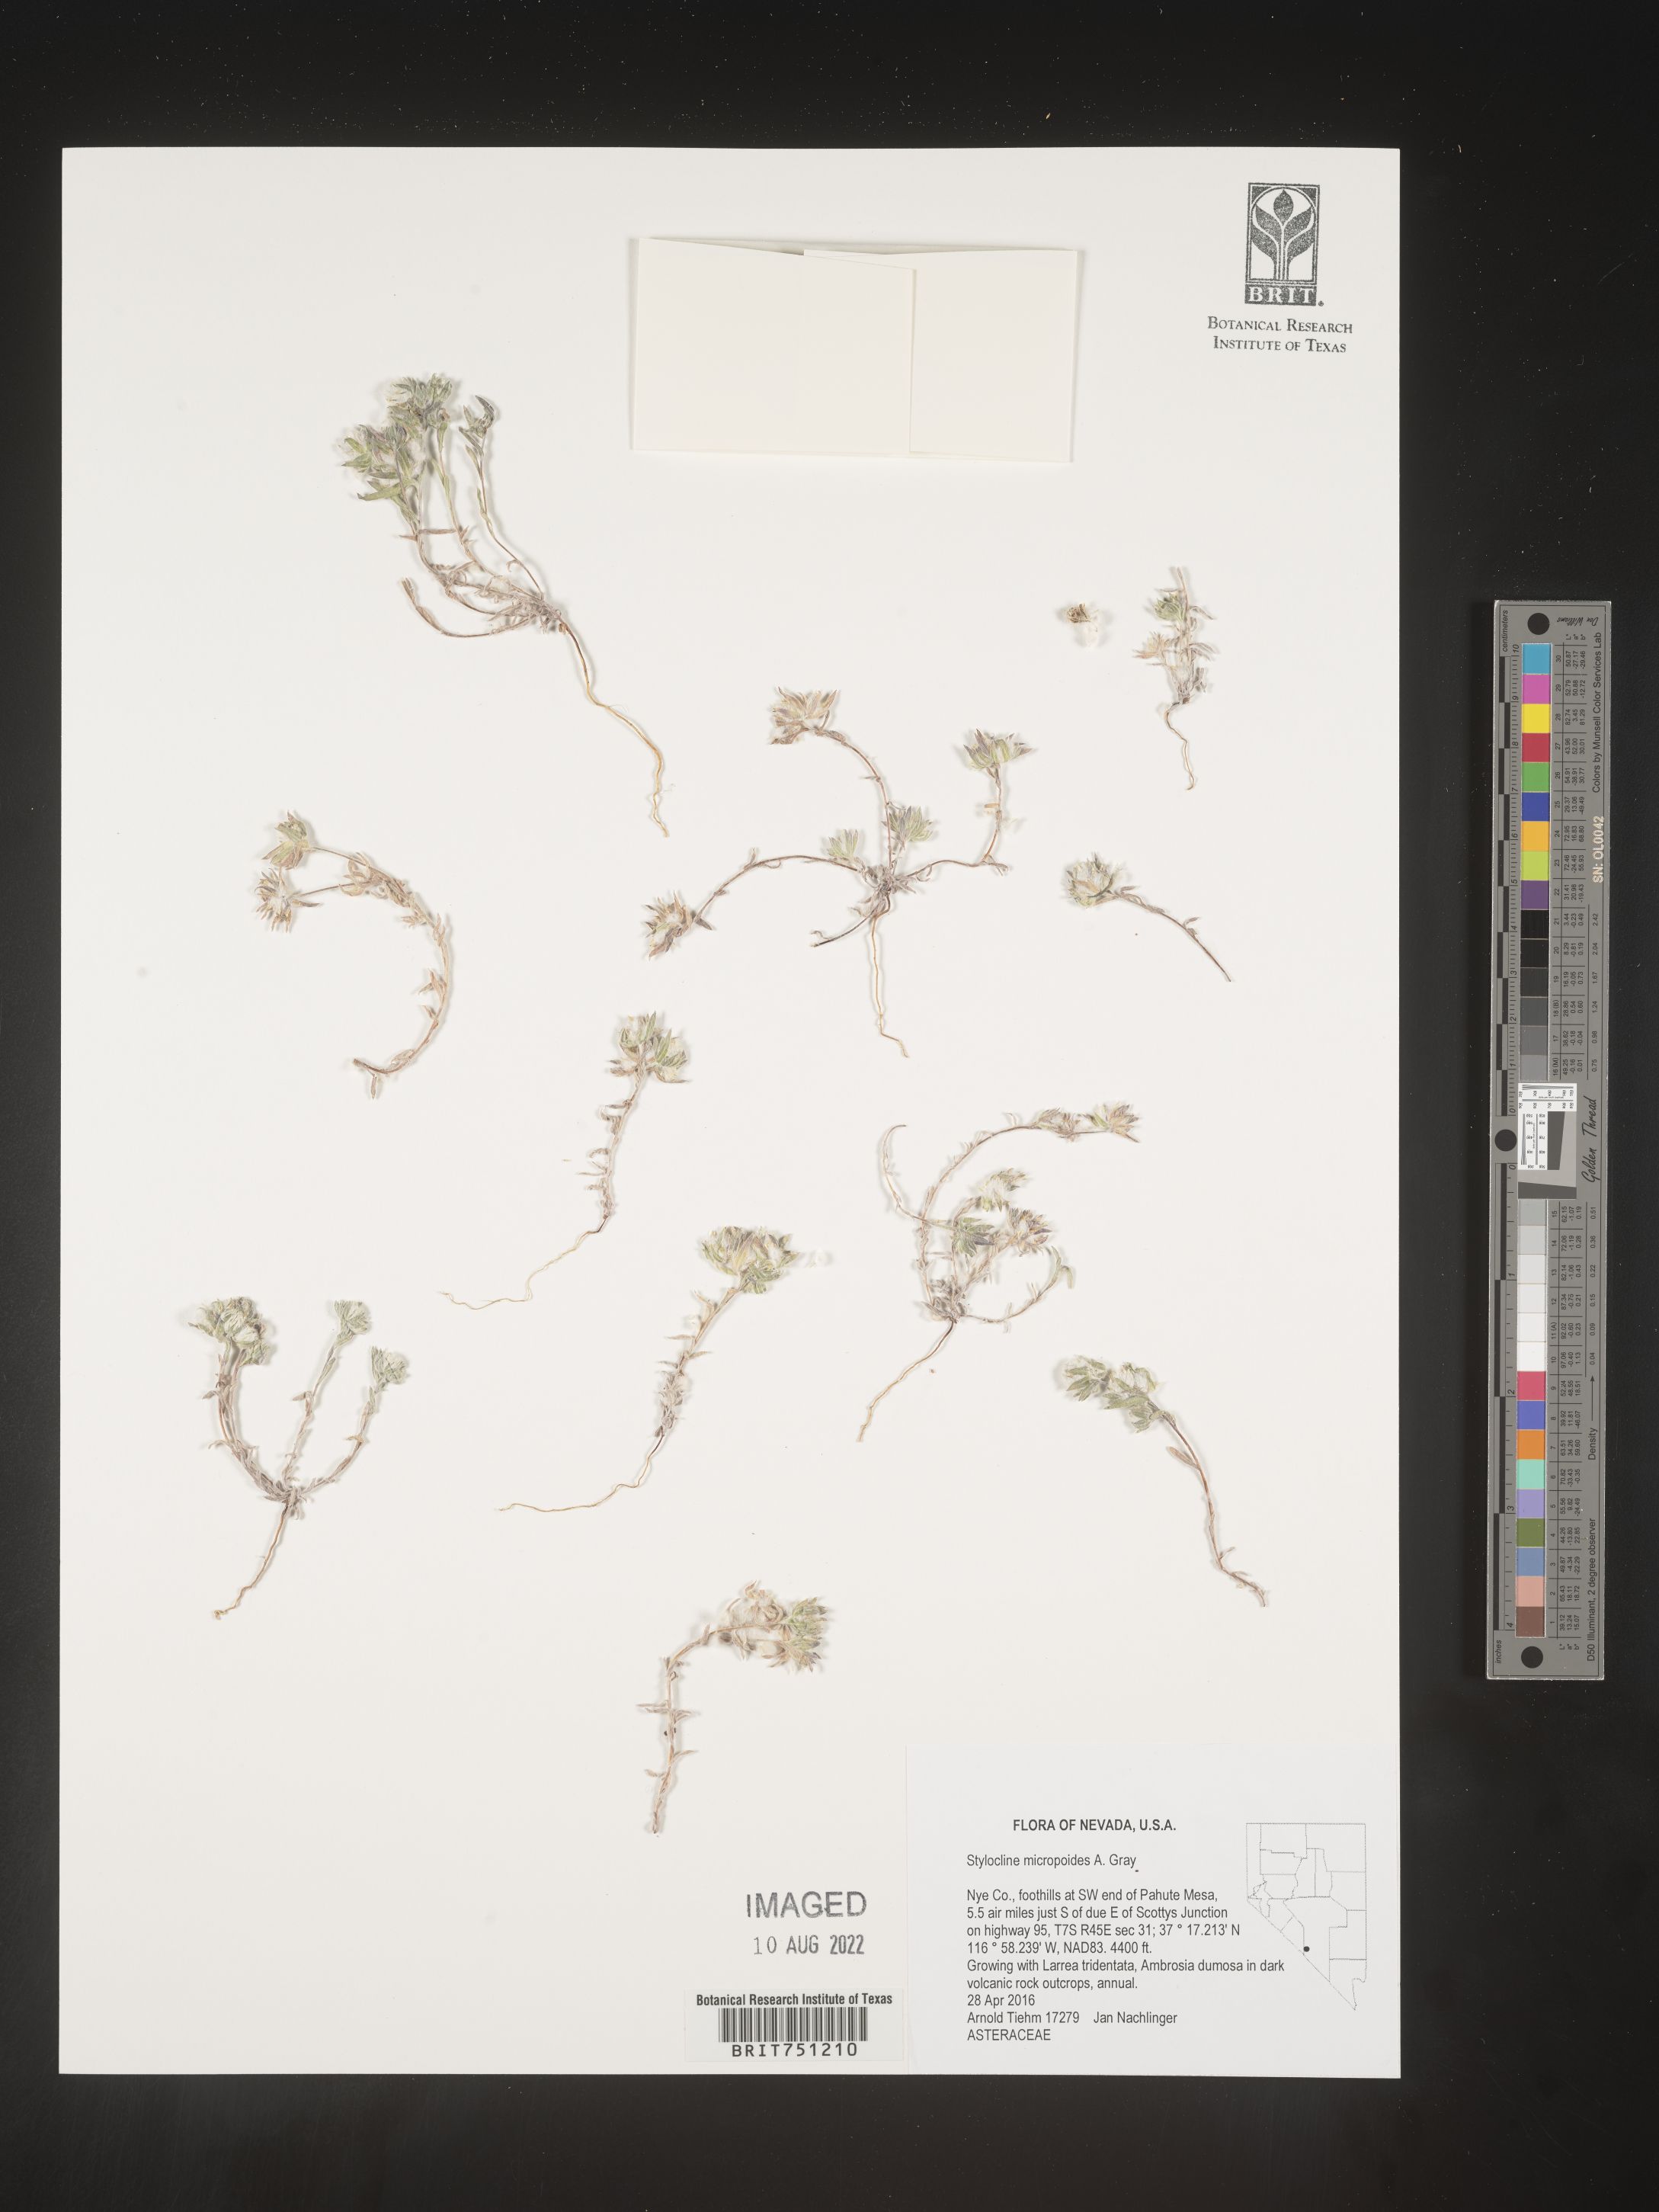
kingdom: Plantae
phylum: Tracheophyta
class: Magnoliopsida
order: Asterales
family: Asteraceae
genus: Stylocline
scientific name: Stylocline
